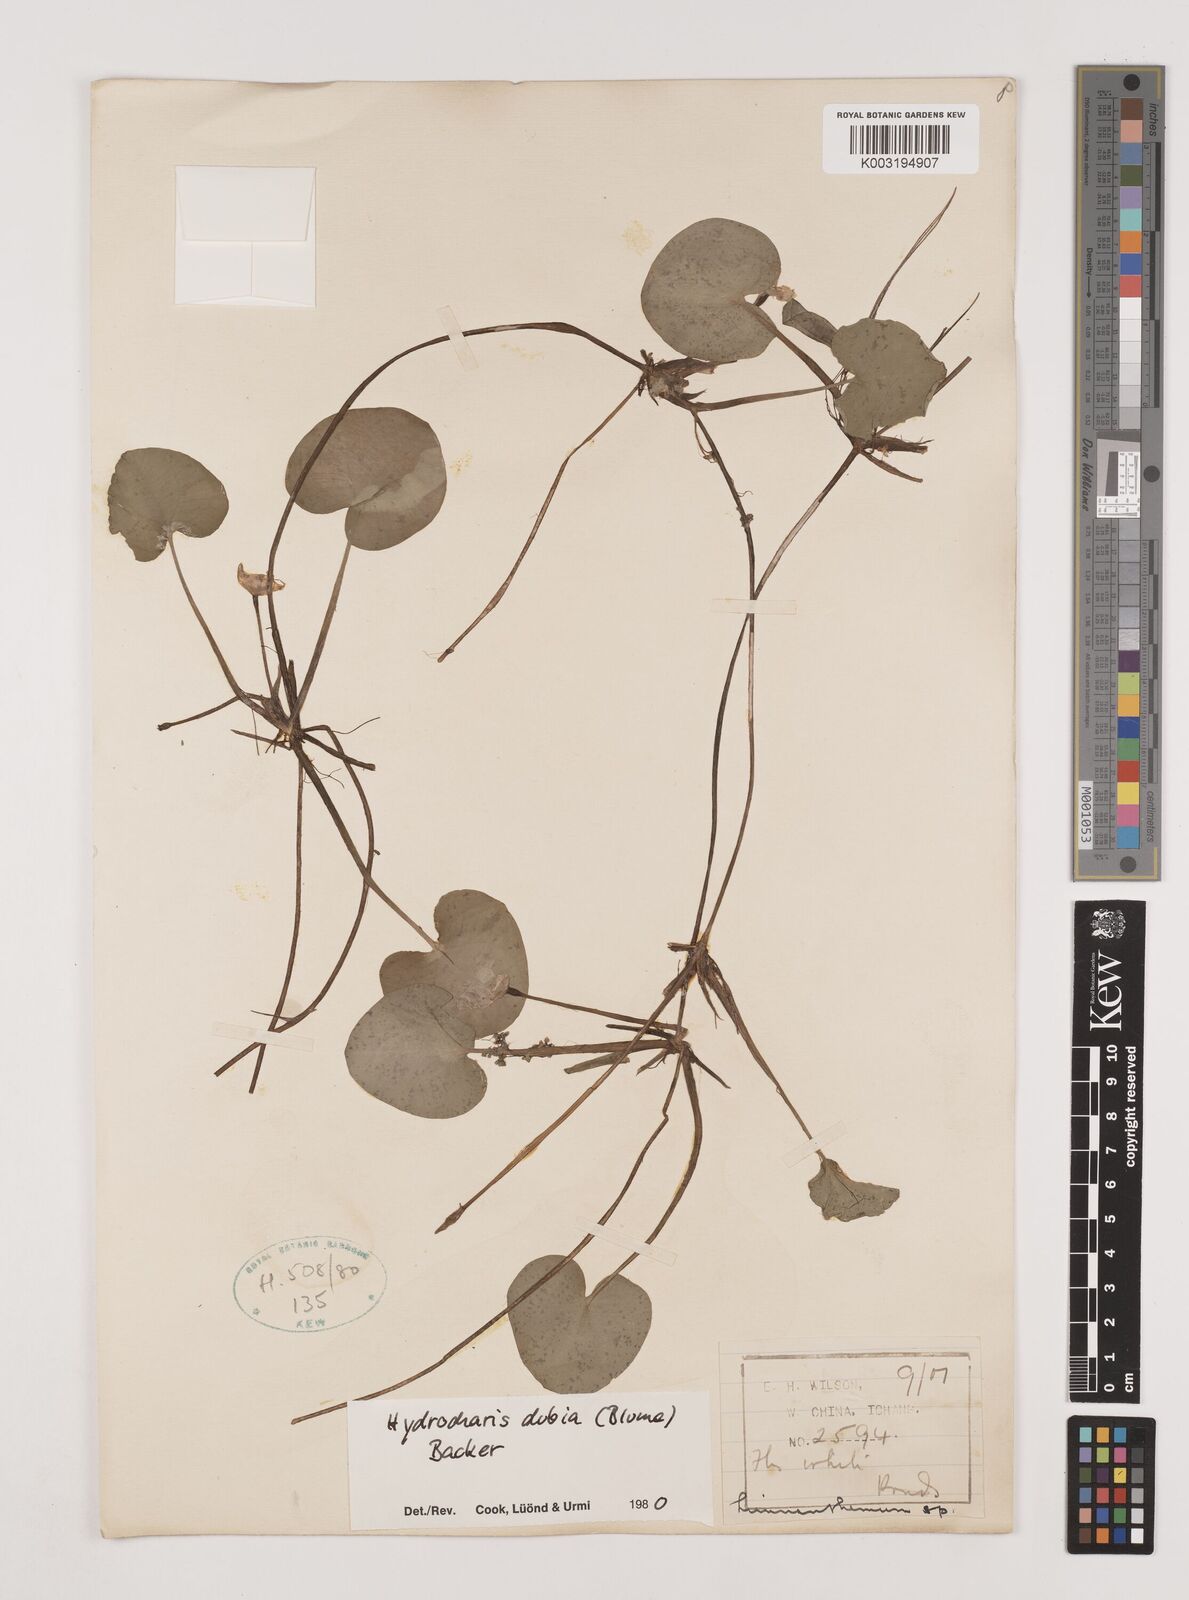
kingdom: Plantae
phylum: Tracheophyta
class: Liliopsida
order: Alismatales
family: Hydrocharitaceae
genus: Hydrocharis
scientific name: Hydrocharis dubia
